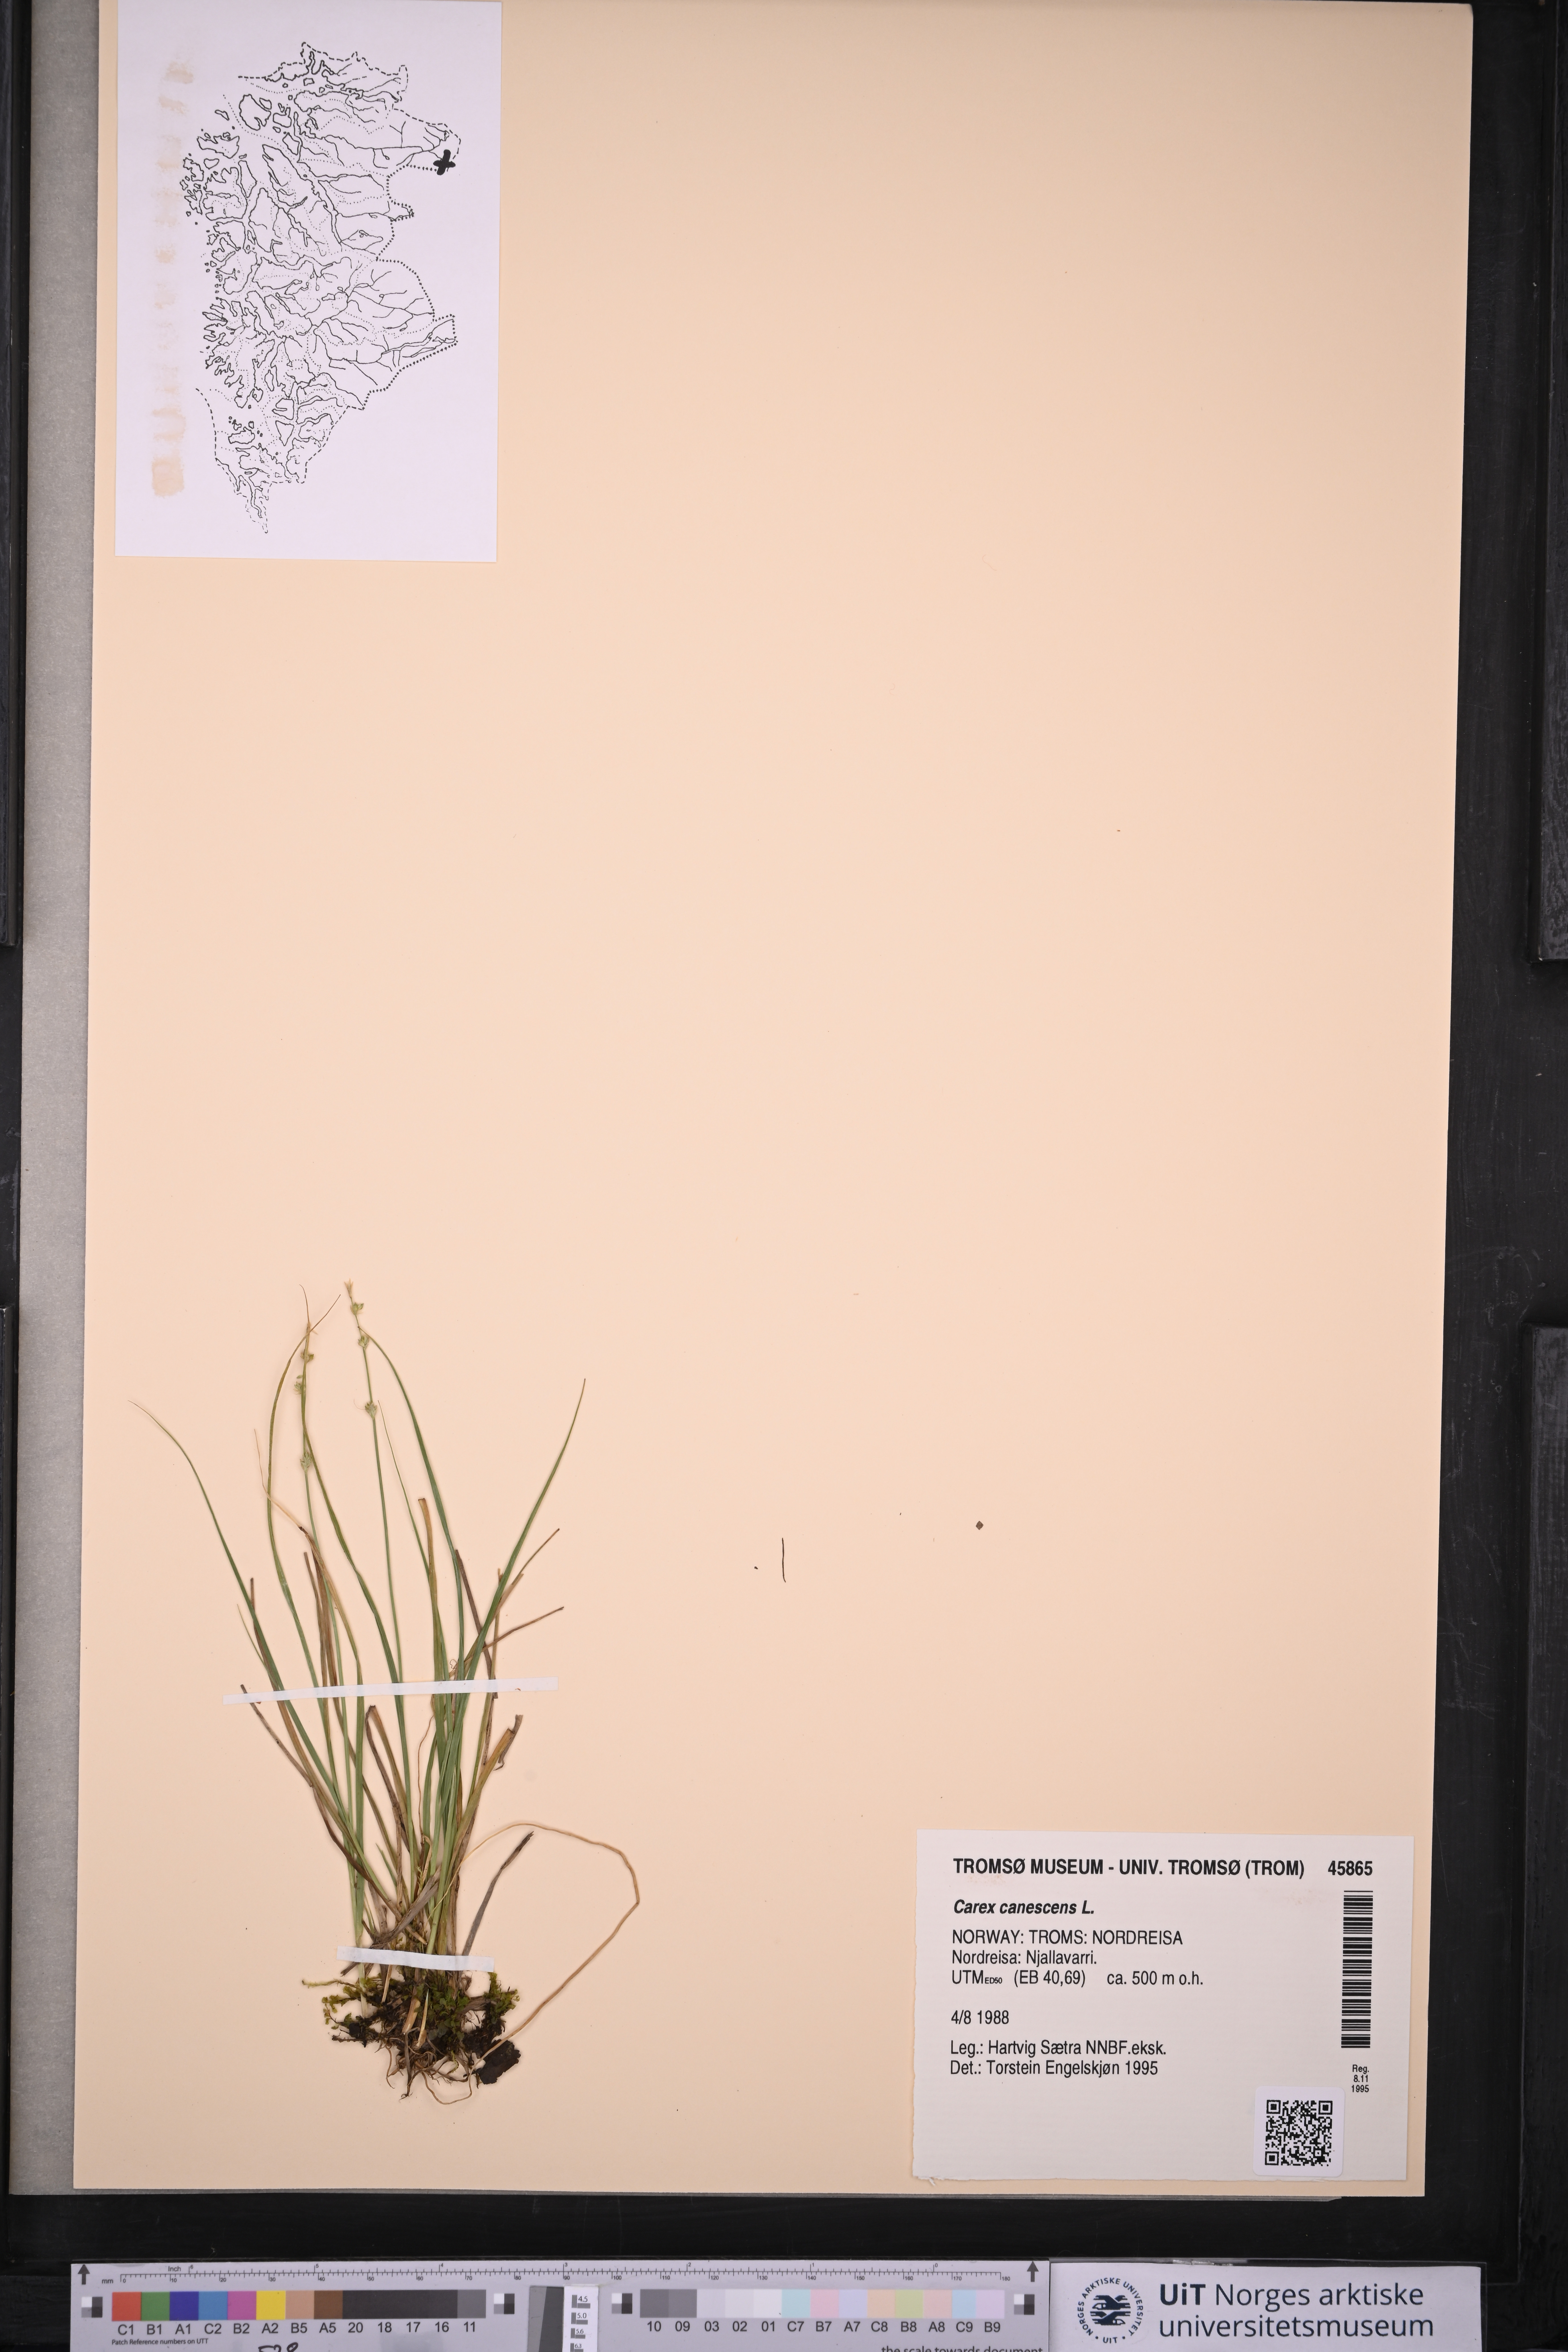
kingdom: Plantae
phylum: Tracheophyta
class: Liliopsida
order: Poales
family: Cyperaceae
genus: Carex
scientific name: Carex canescens
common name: White sedge
